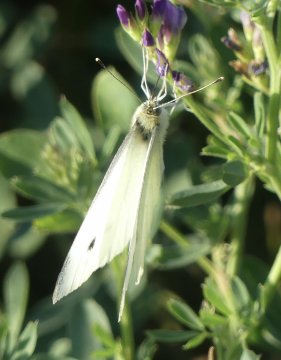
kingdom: Animalia
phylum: Arthropoda
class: Insecta
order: Lepidoptera
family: Pieridae
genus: Pieris
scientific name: Pieris rapae
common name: Cabbage White
